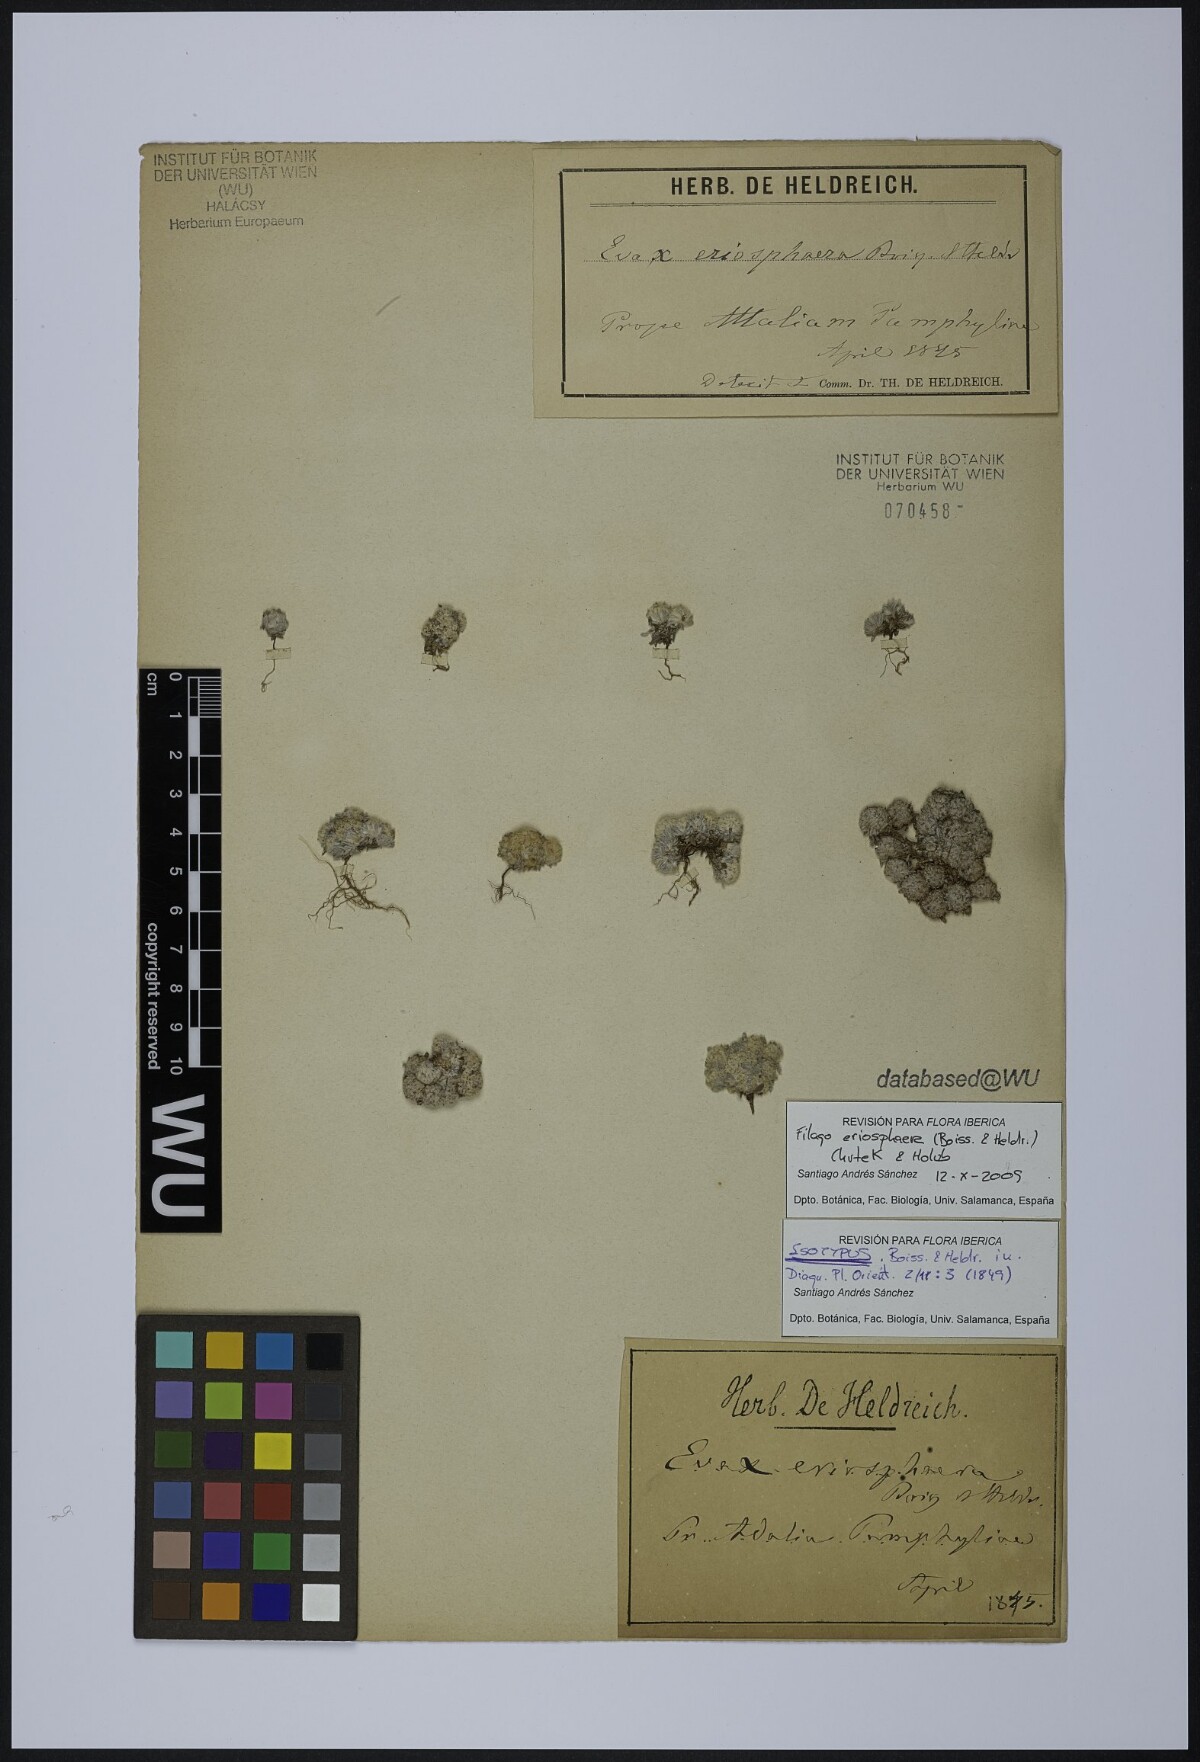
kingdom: Plantae
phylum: Tracheophyta
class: Magnoliopsida
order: Asterales
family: Asteraceae
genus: Filago
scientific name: Filago eriosphaera
